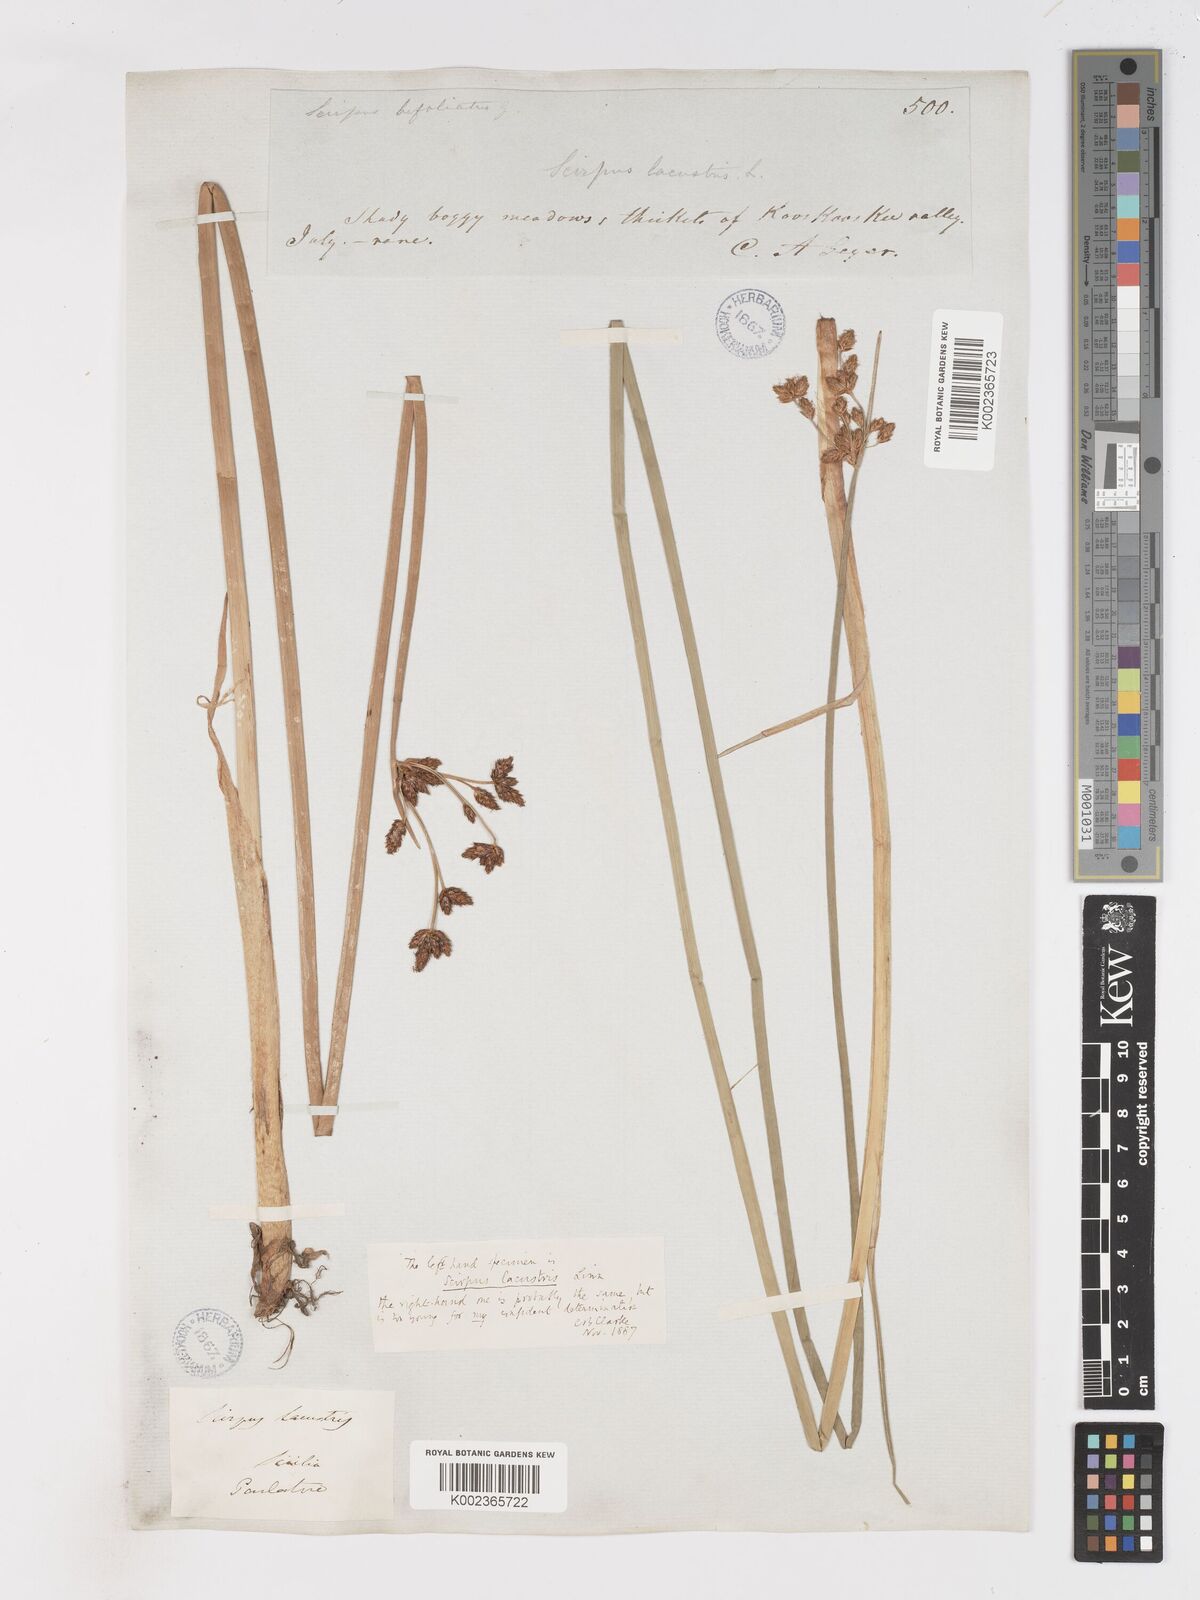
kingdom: Plantae
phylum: Tracheophyta
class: Liliopsida
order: Poales
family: Cyperaceae
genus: Schoenoplectus
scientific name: Schoenoplectus lacustris
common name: Common club-rush
